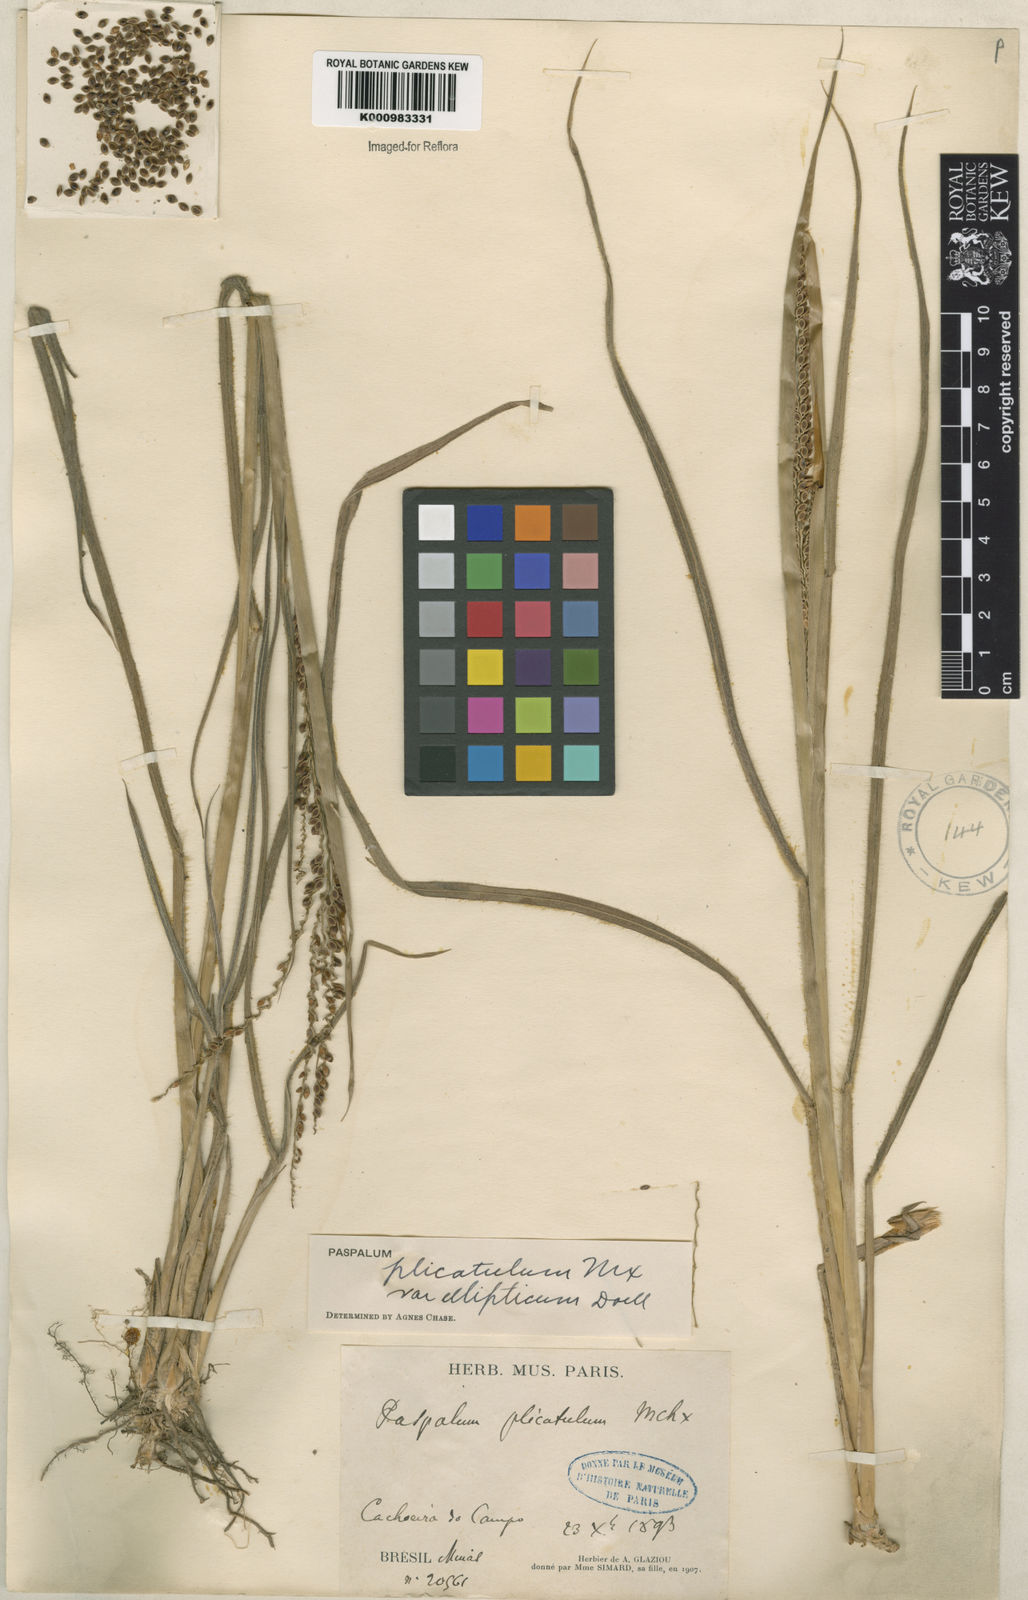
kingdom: Plantae
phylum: Tracheophyta
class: Liliopsida
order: Poales
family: Poaceae
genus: Paspalum
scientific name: Paspalum plicatulum
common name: Top paspalum
